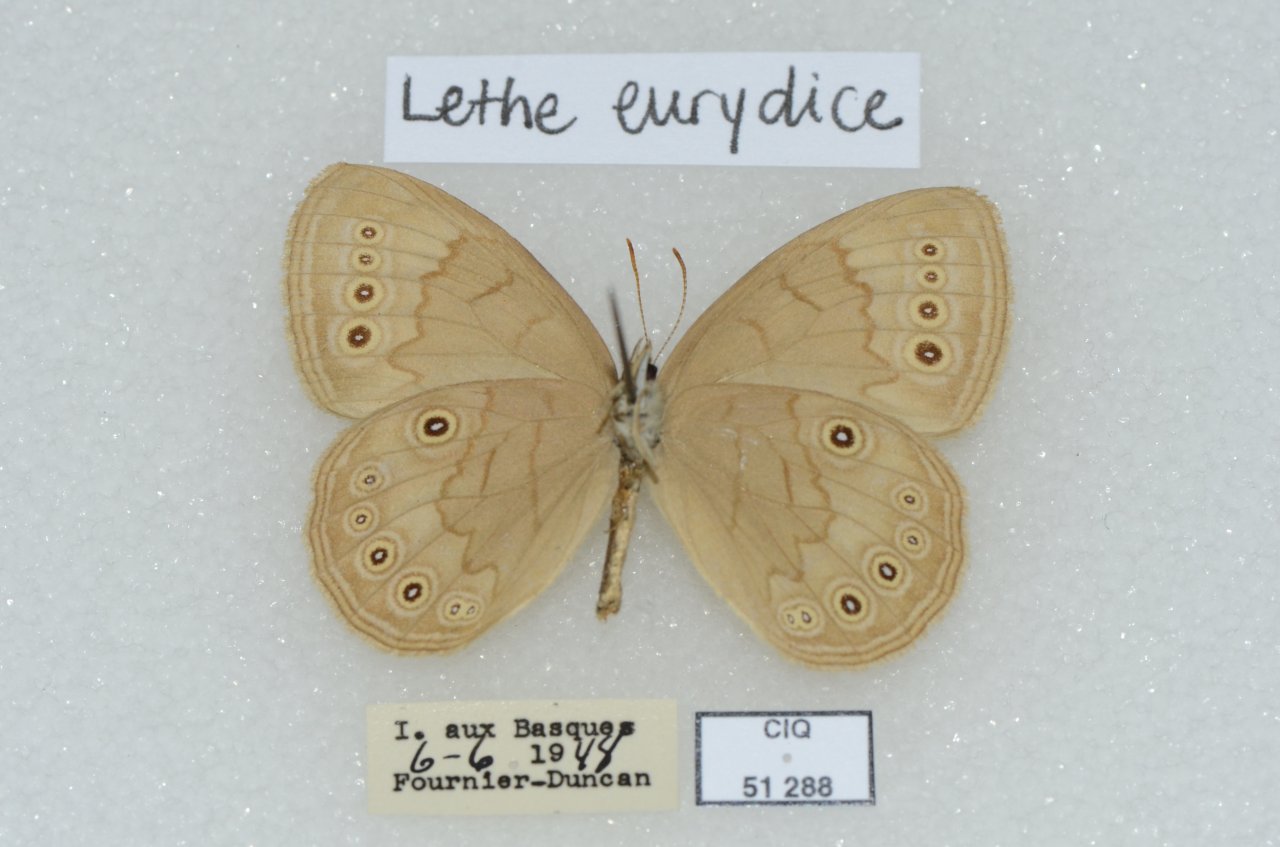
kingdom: Animalia
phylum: Arthropoda
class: Insecta
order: Lepidoptera
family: Nymphalidae
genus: Lethe
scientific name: Lethe eurydice
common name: Eyed Brown
